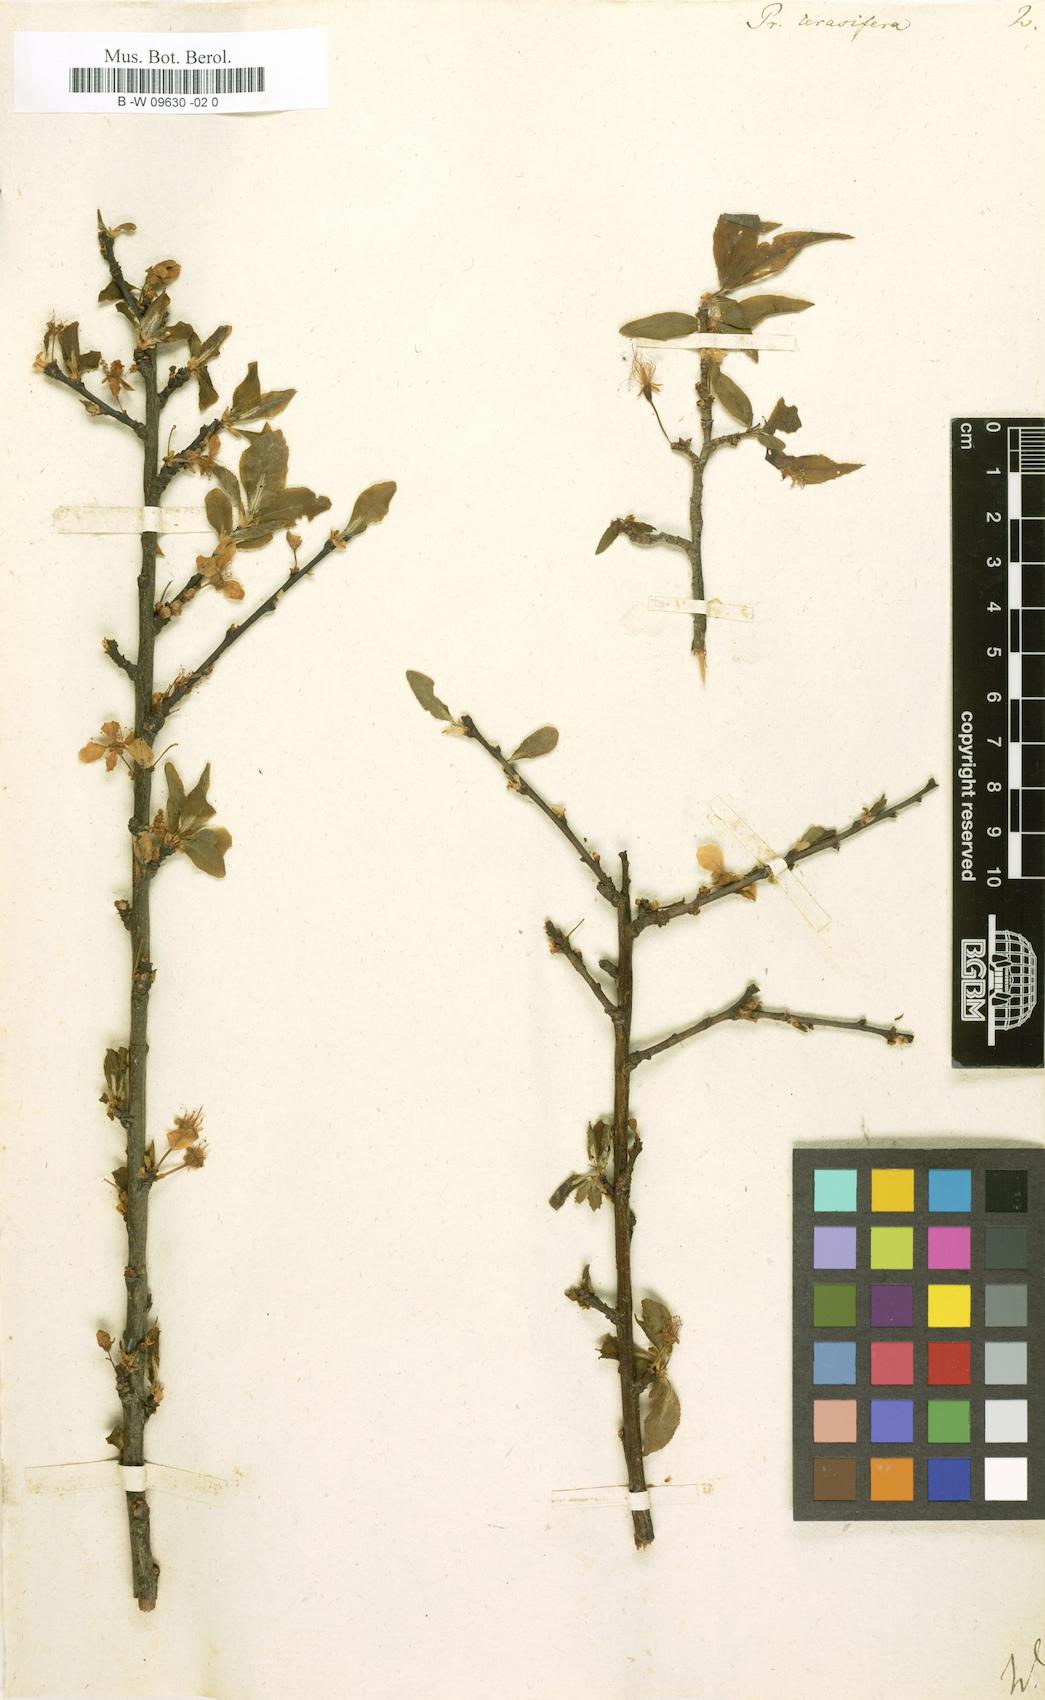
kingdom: Plantae
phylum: Tracheophyta
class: Magnoliopsida
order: Rosales
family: Rosaceae
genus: Prunus
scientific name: Prunus cerasifera
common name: Cherry plum
